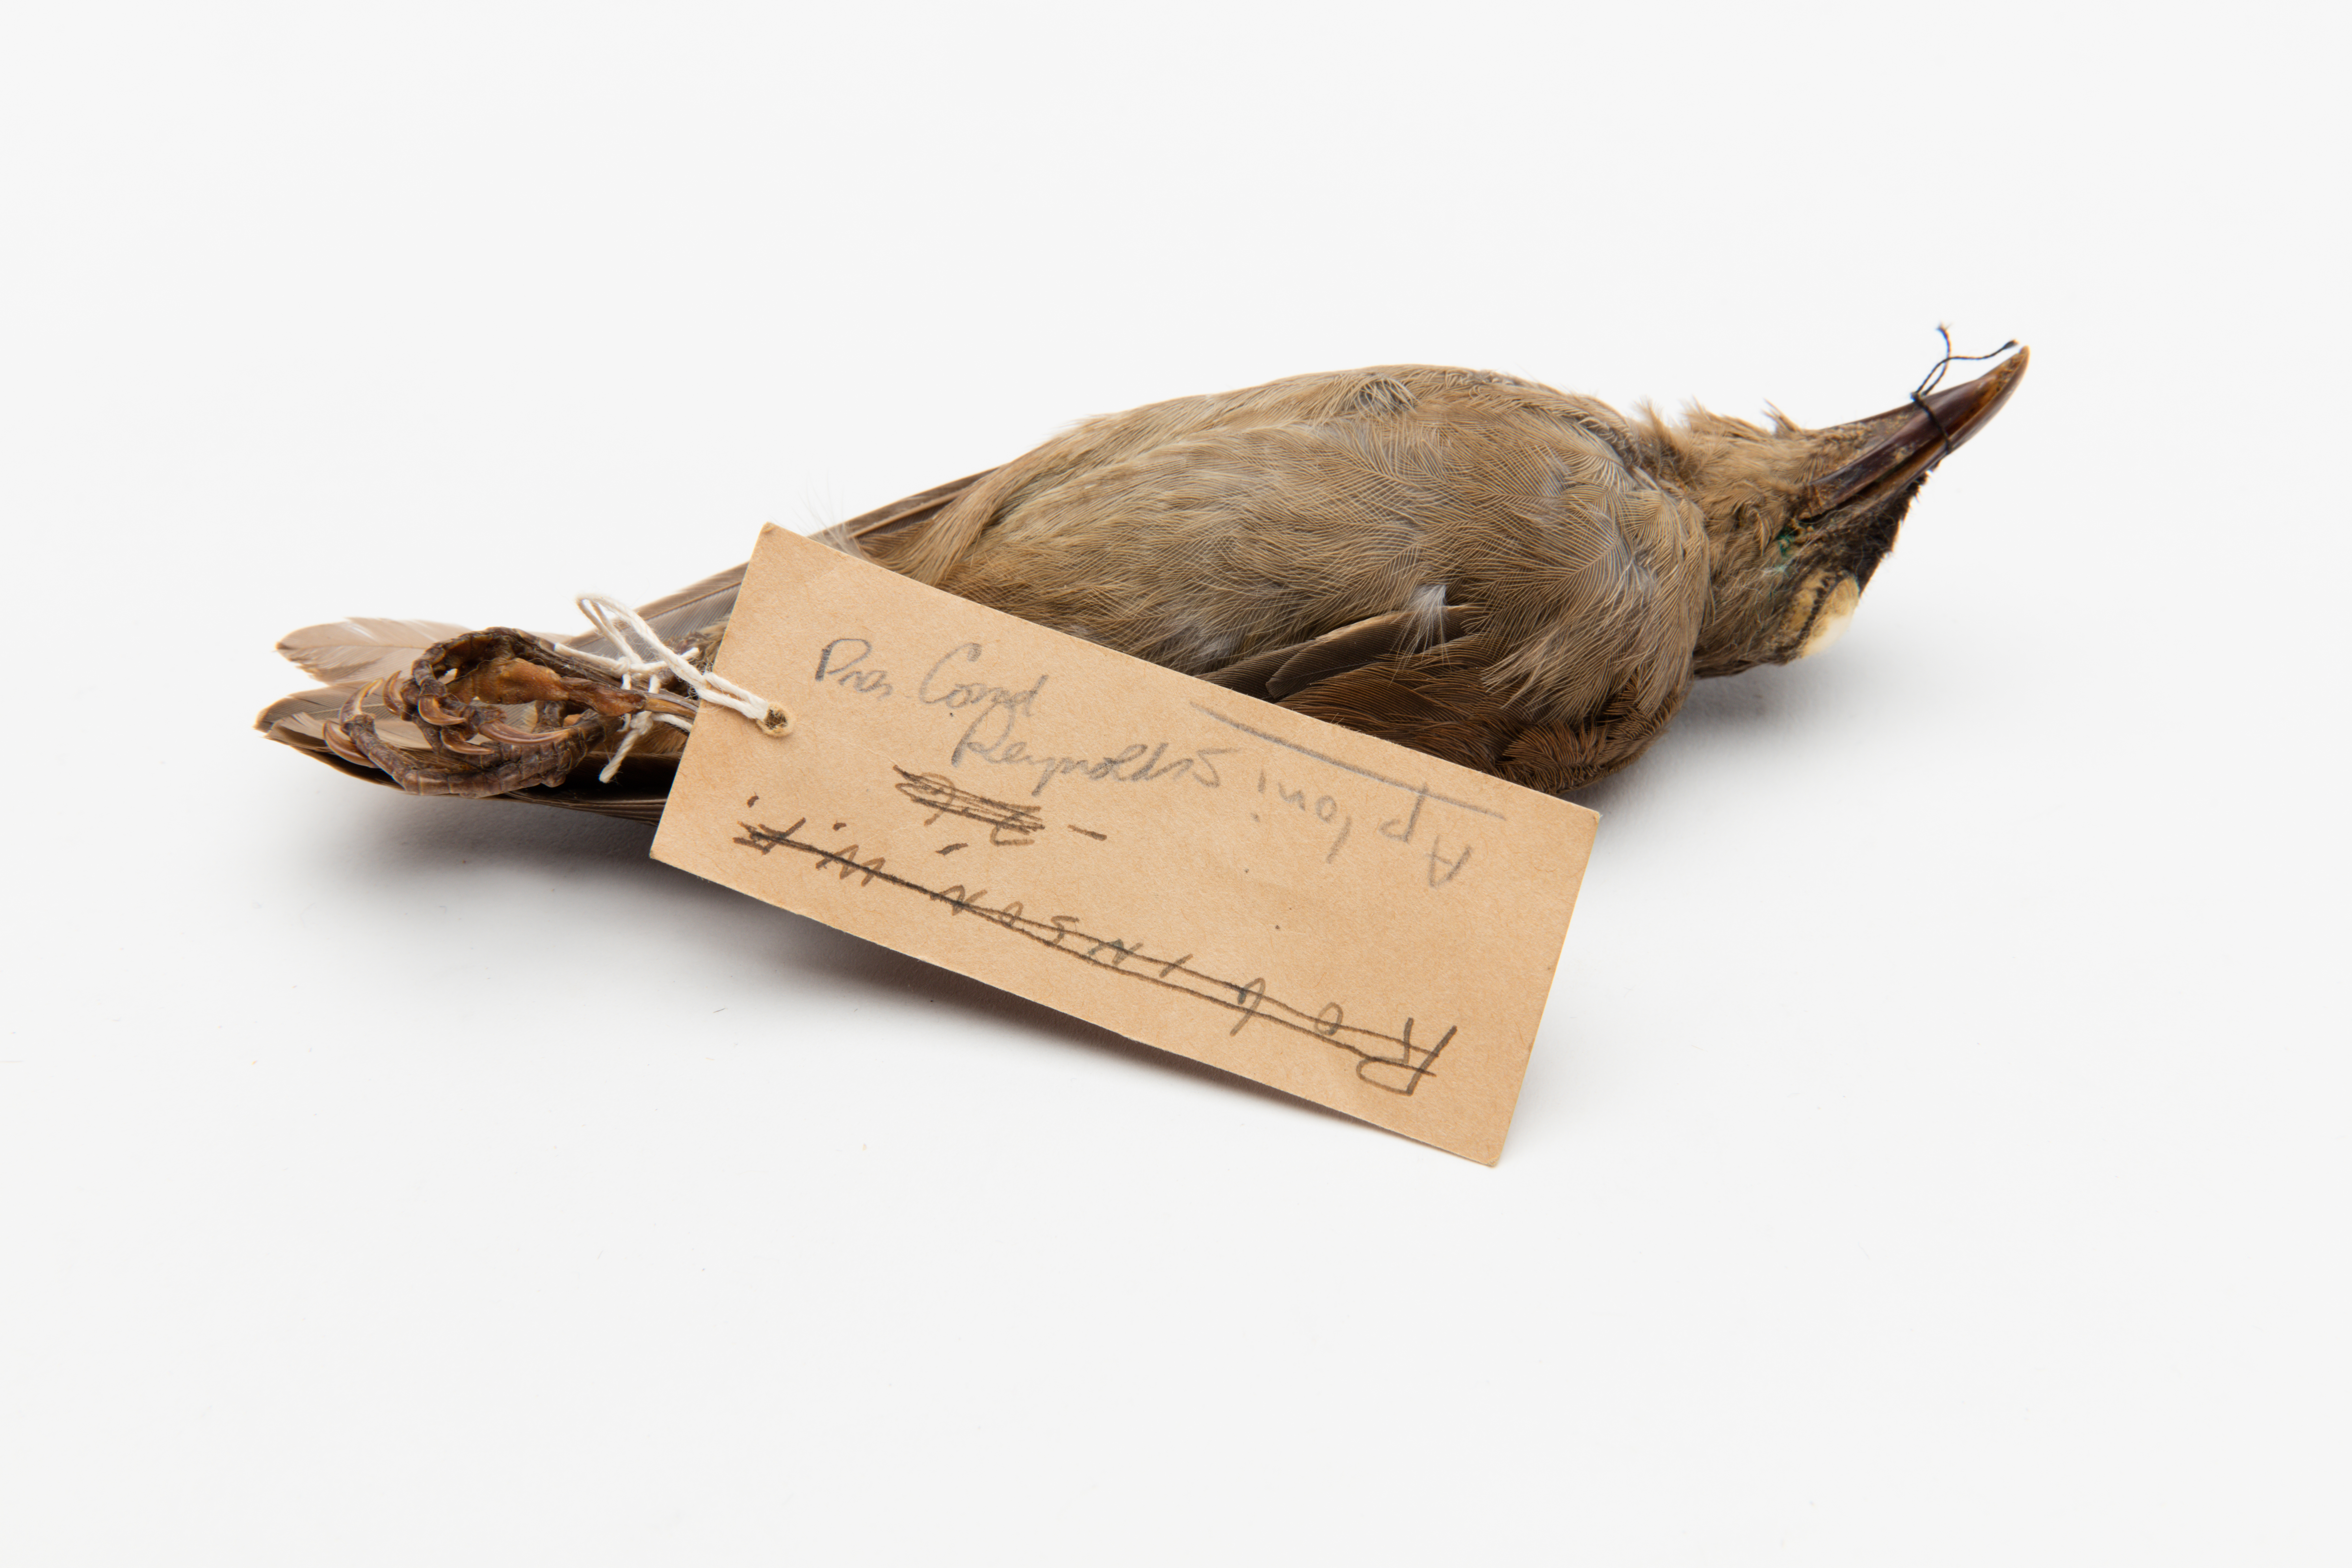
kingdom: Animalia
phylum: Chordata
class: Aves
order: Passeriformes
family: Sturnidae
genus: Aplonis
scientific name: Aplonis zelandica
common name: Rusty-winged starling
